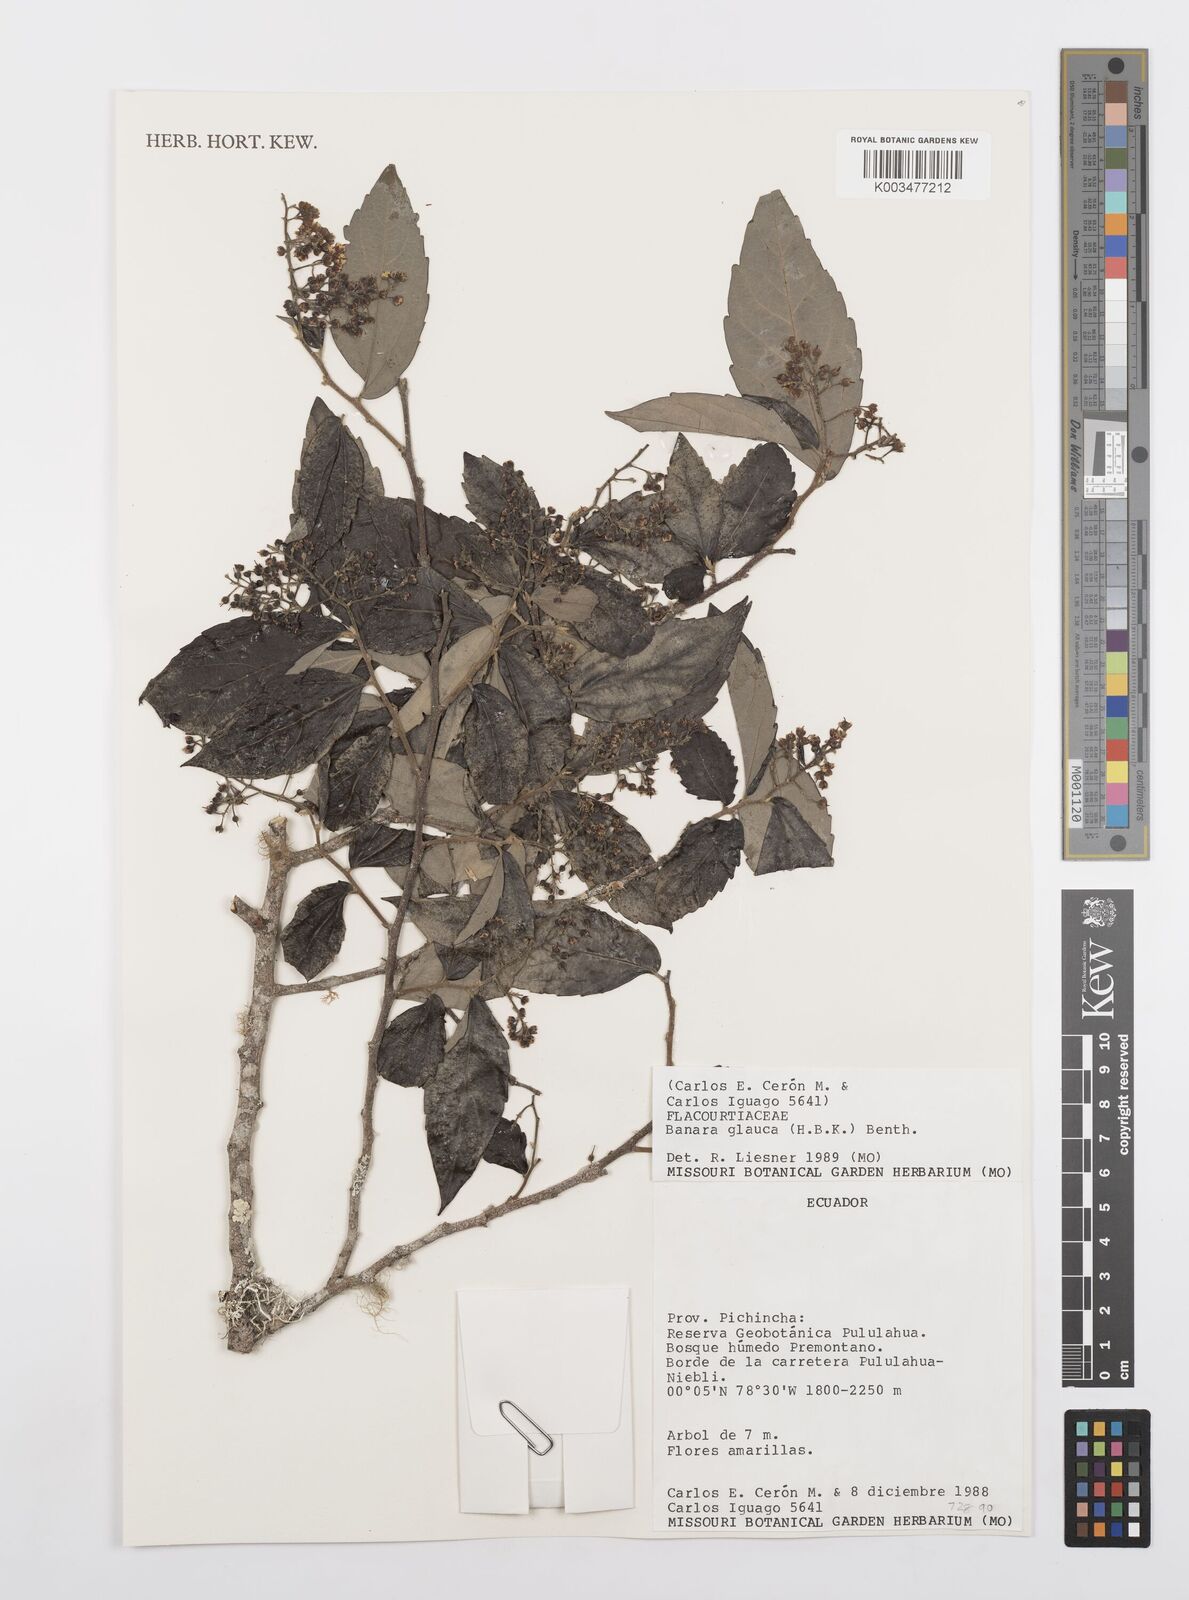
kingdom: Plantae
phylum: Tracheophyta
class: Magnoliopsida
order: Malpighiales
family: Salicaceae
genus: Banara
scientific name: Banara glauca
